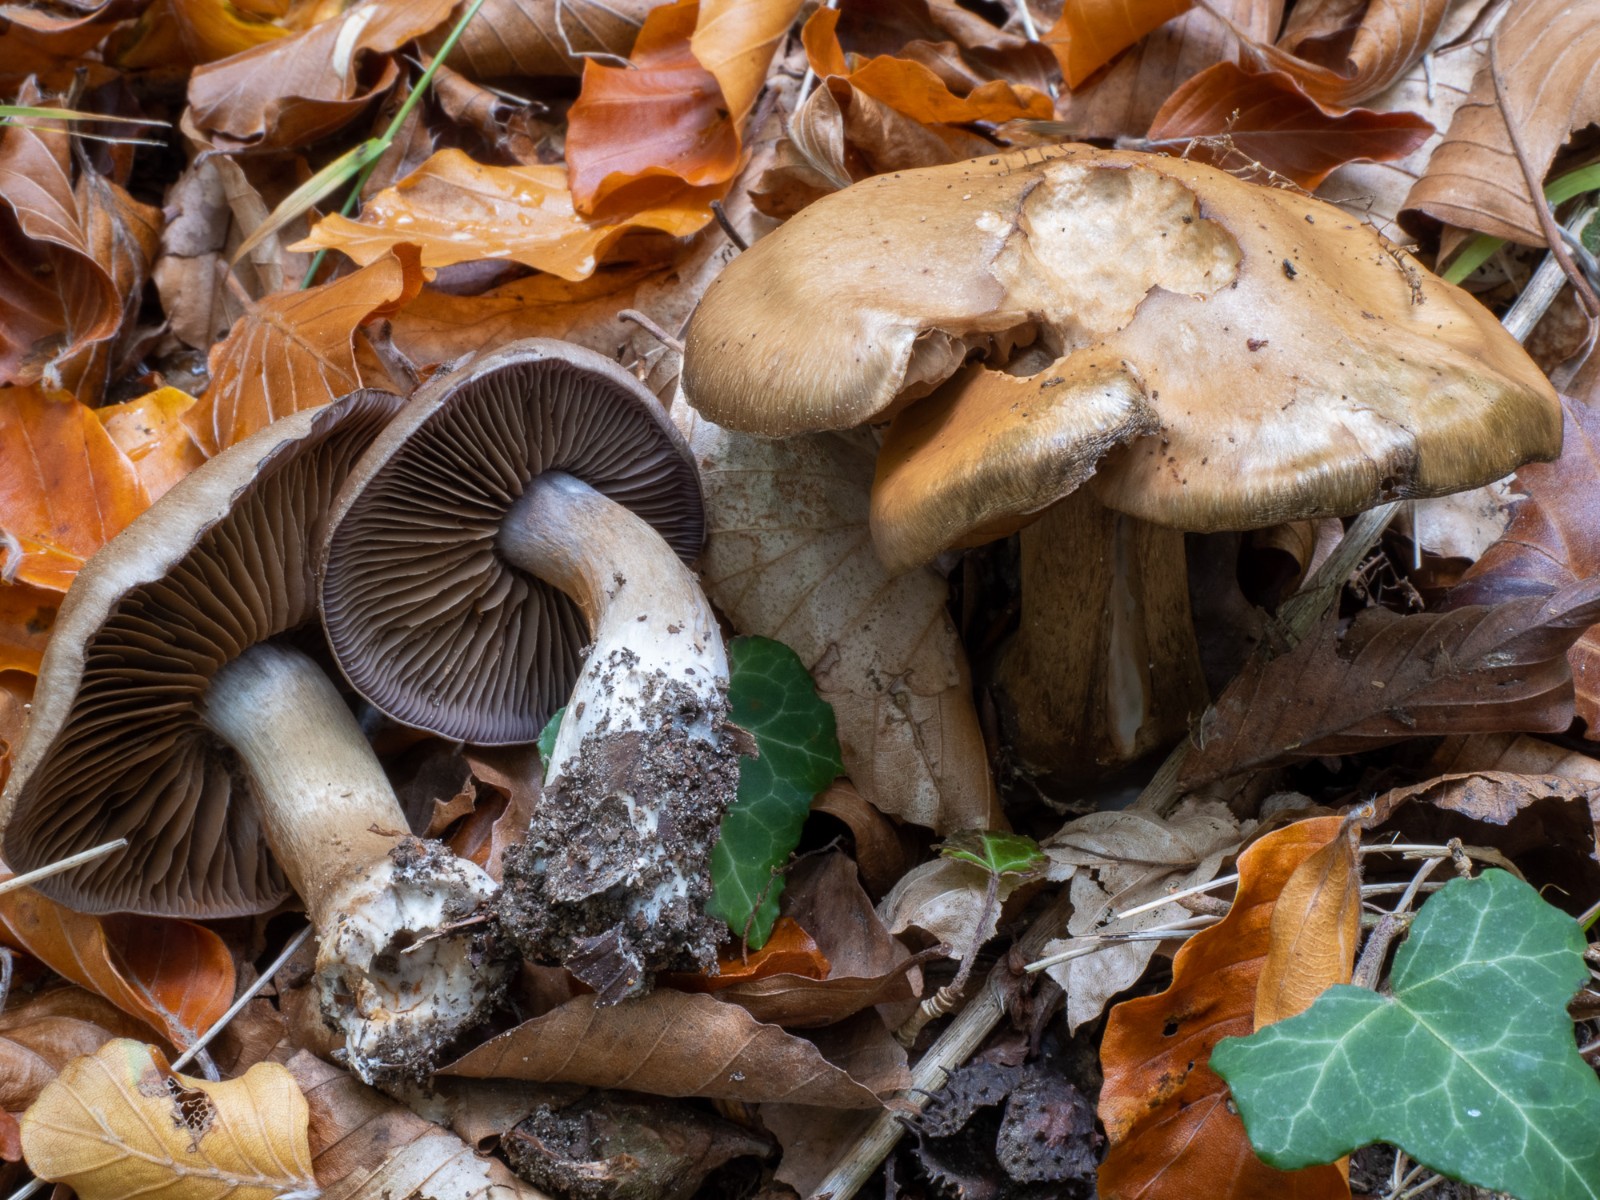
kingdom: Fungi
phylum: Basidiomycota
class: Agaricomycetes
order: Agaricales
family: Cortinariaceae
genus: Cortinarius
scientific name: Cortinarius
